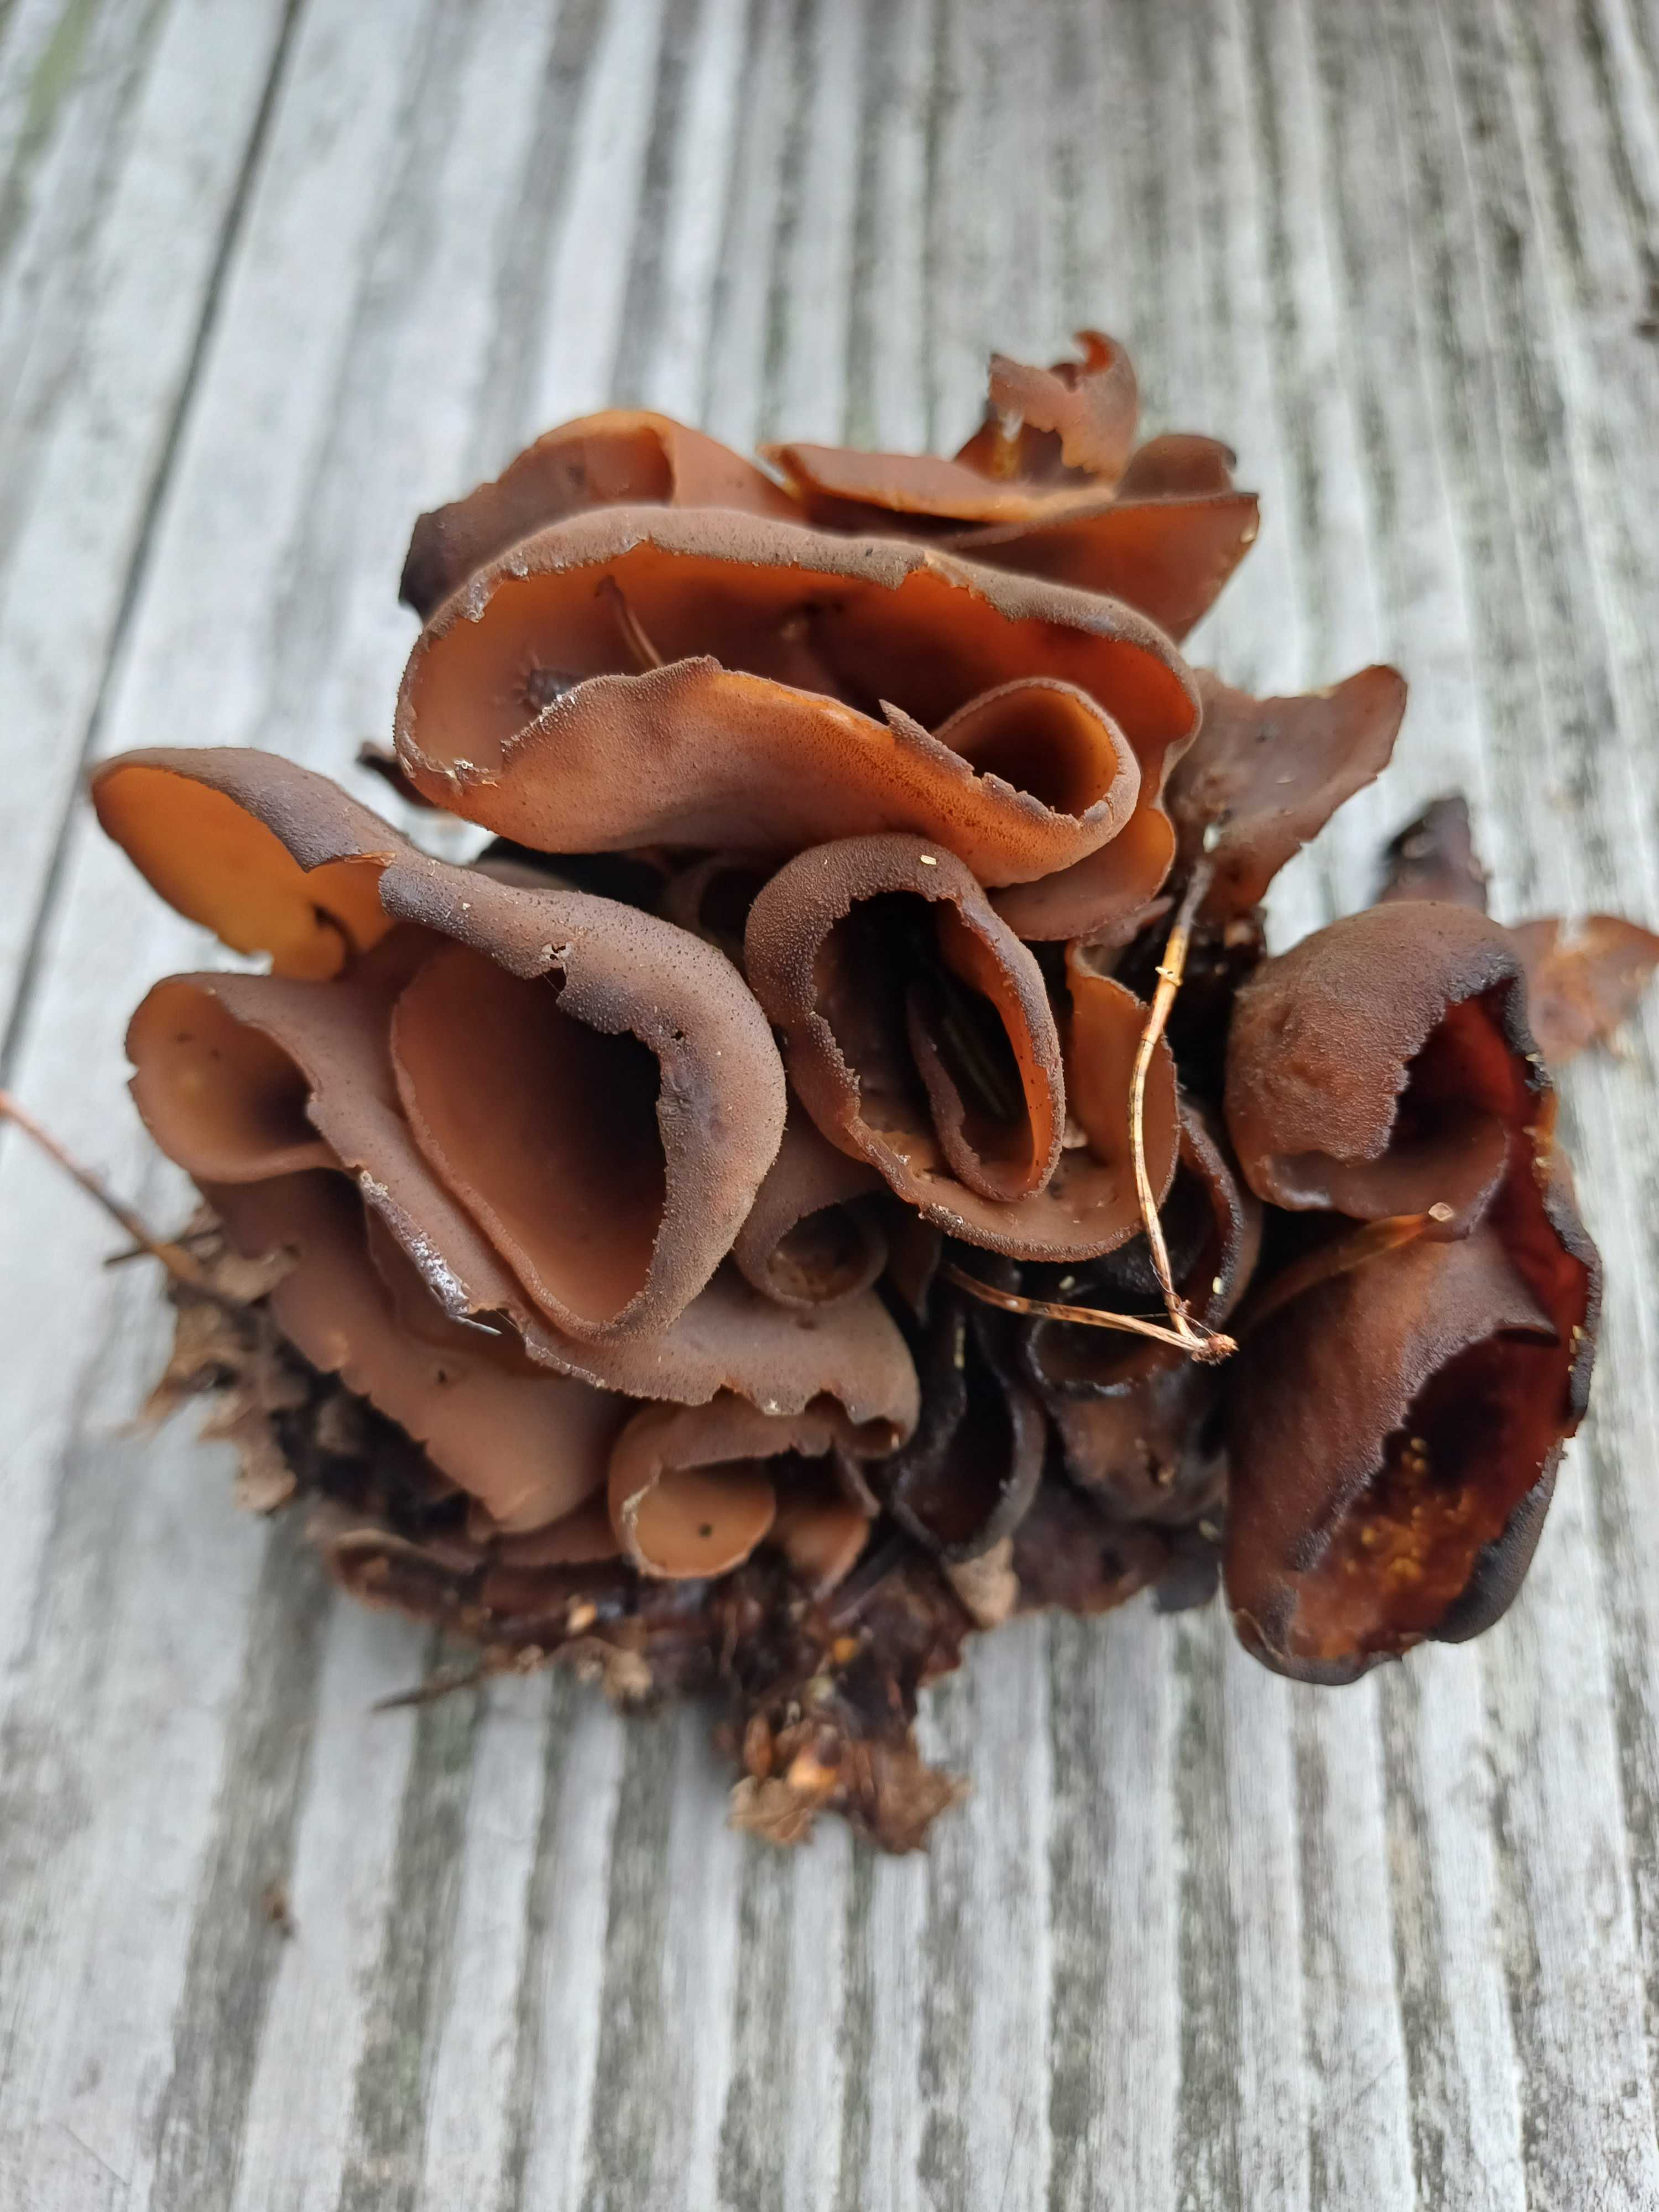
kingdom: Fungi
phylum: Ascomycota
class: Pezizomycetes
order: Pezizales
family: Otideaceae
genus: Otidea
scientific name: Otidea bufonia
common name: brun ørebæger
